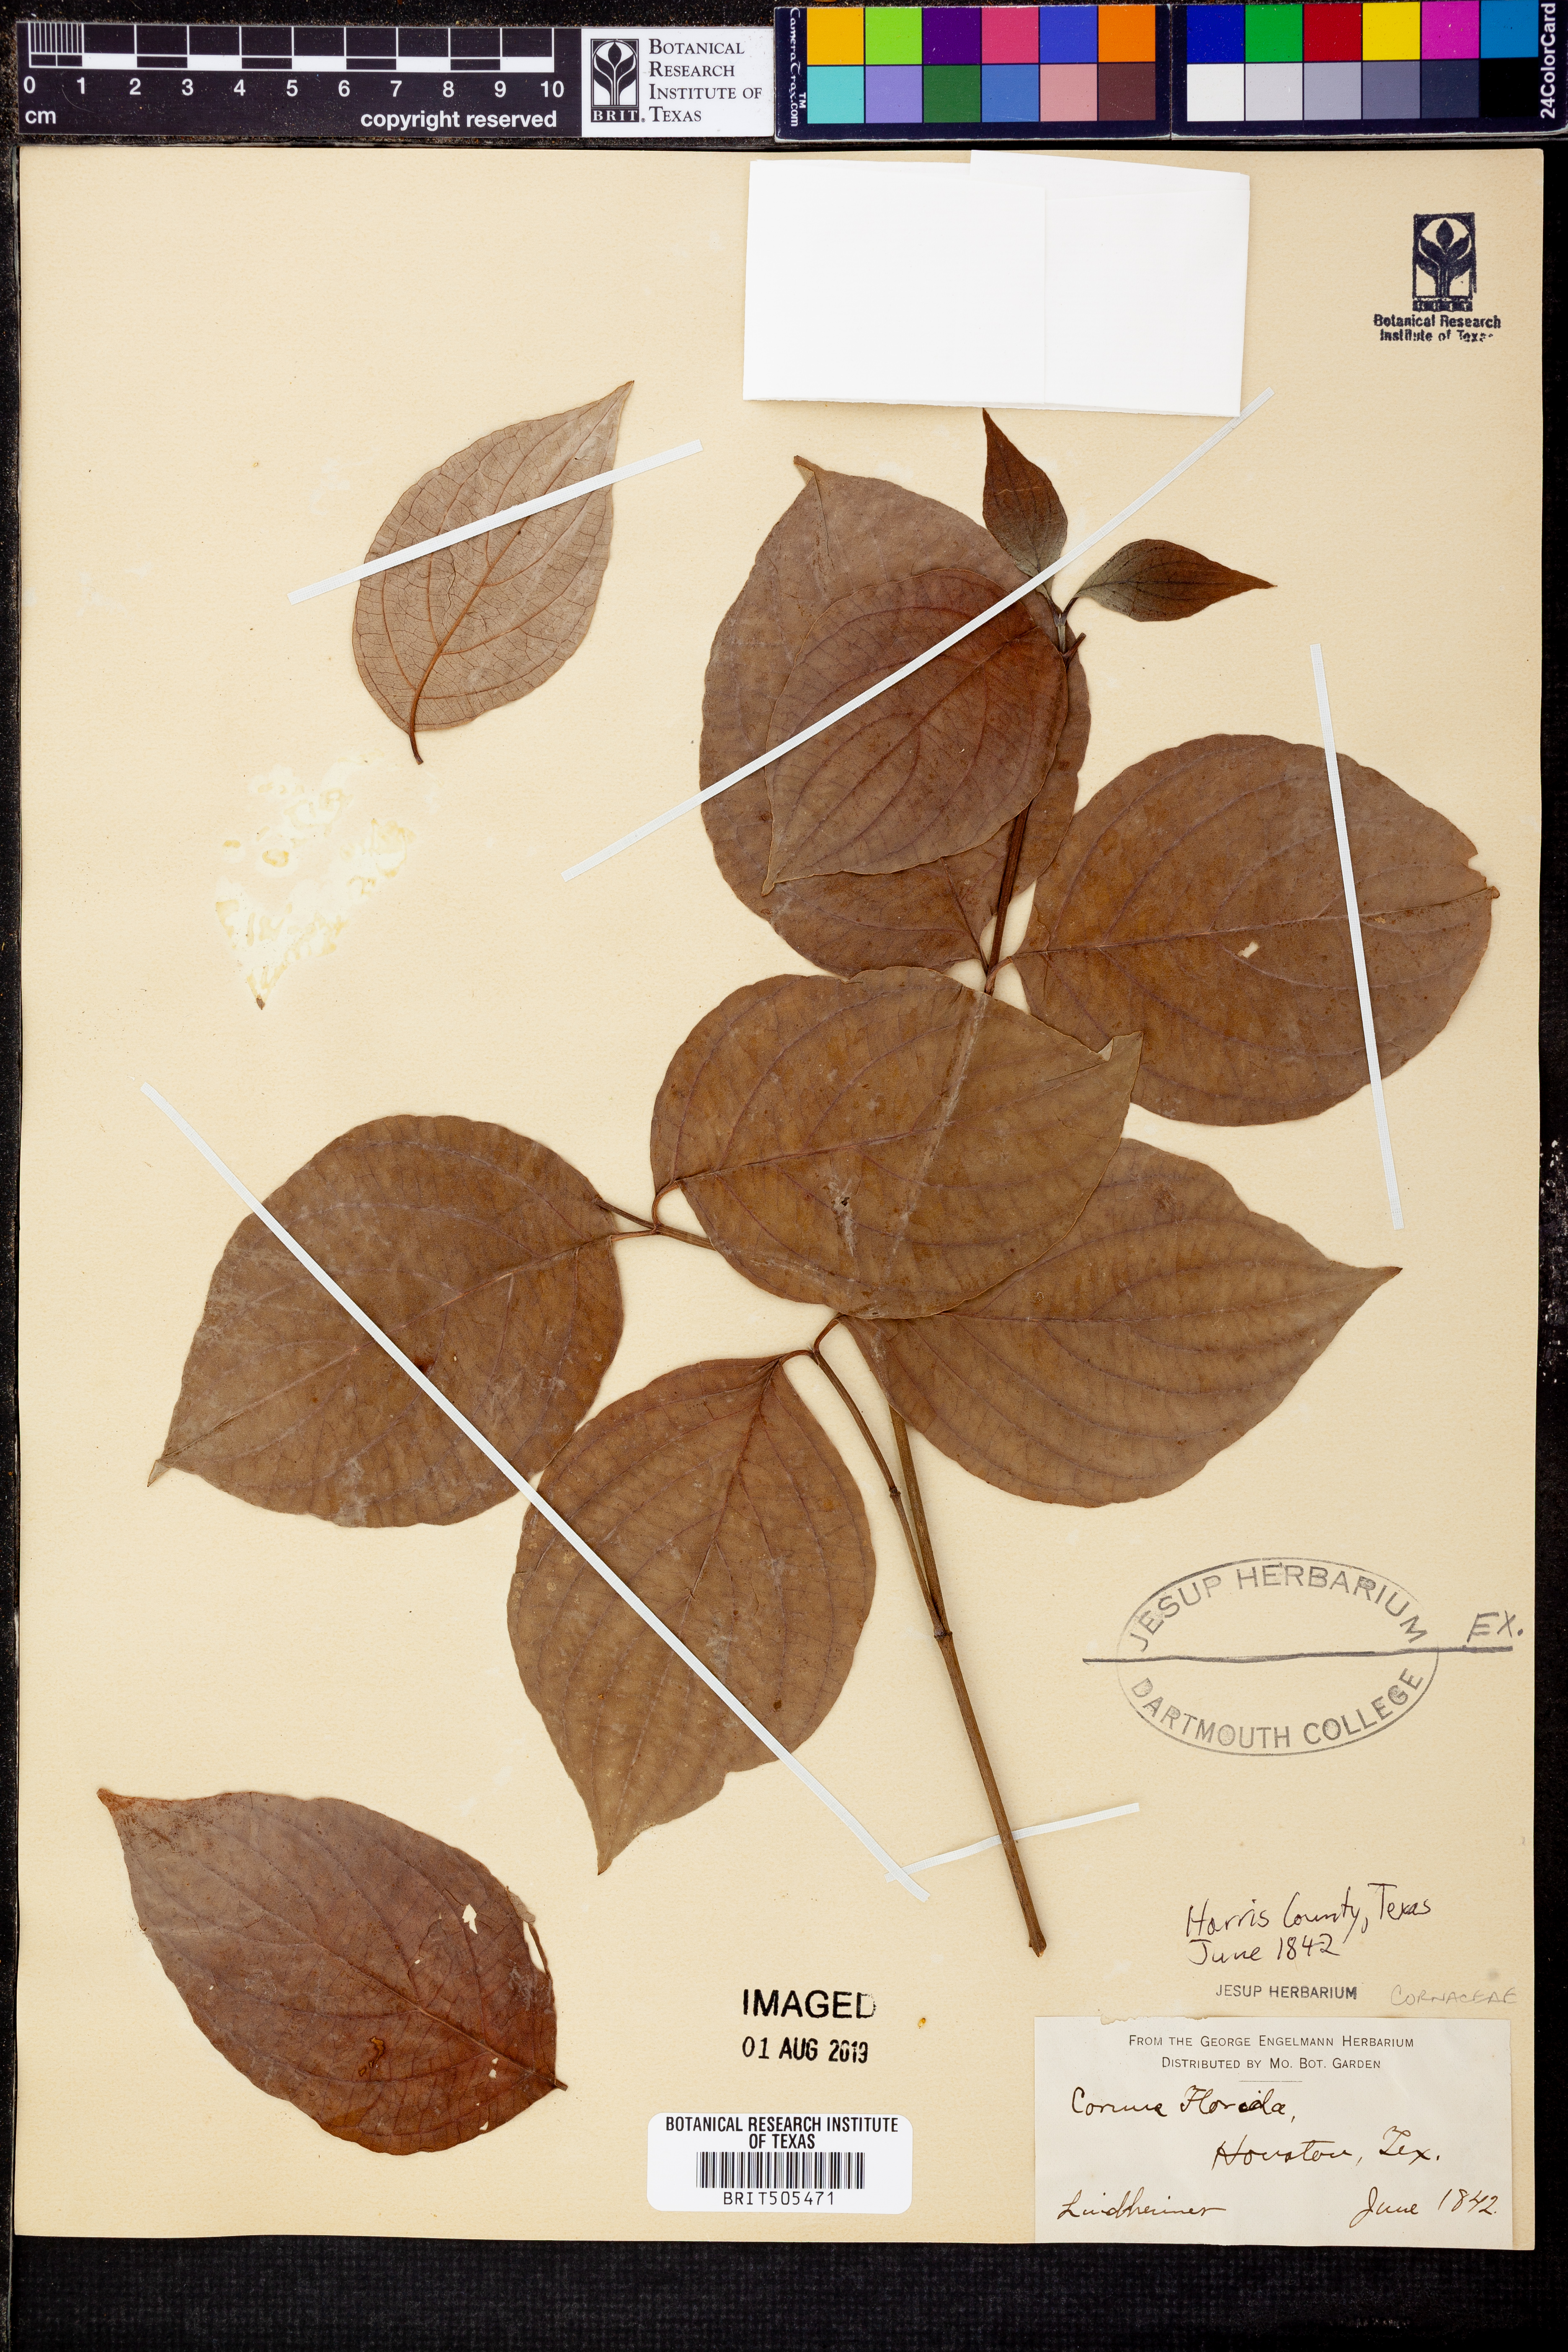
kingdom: Plantae
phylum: Tracheophyta
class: Magnoliopsida
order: Cornales
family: Cornaceae
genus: Cornus
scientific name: Cornus florida
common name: Flowering dogwood
